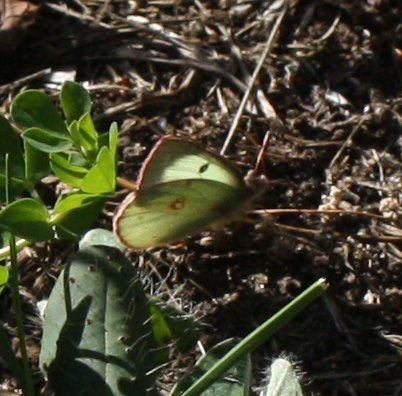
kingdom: Animalia
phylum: Arthropoda
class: Insecta
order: Lepidoptera
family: Pieridae
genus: Colias
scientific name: Colias philodice
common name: Clouded Sulphur
